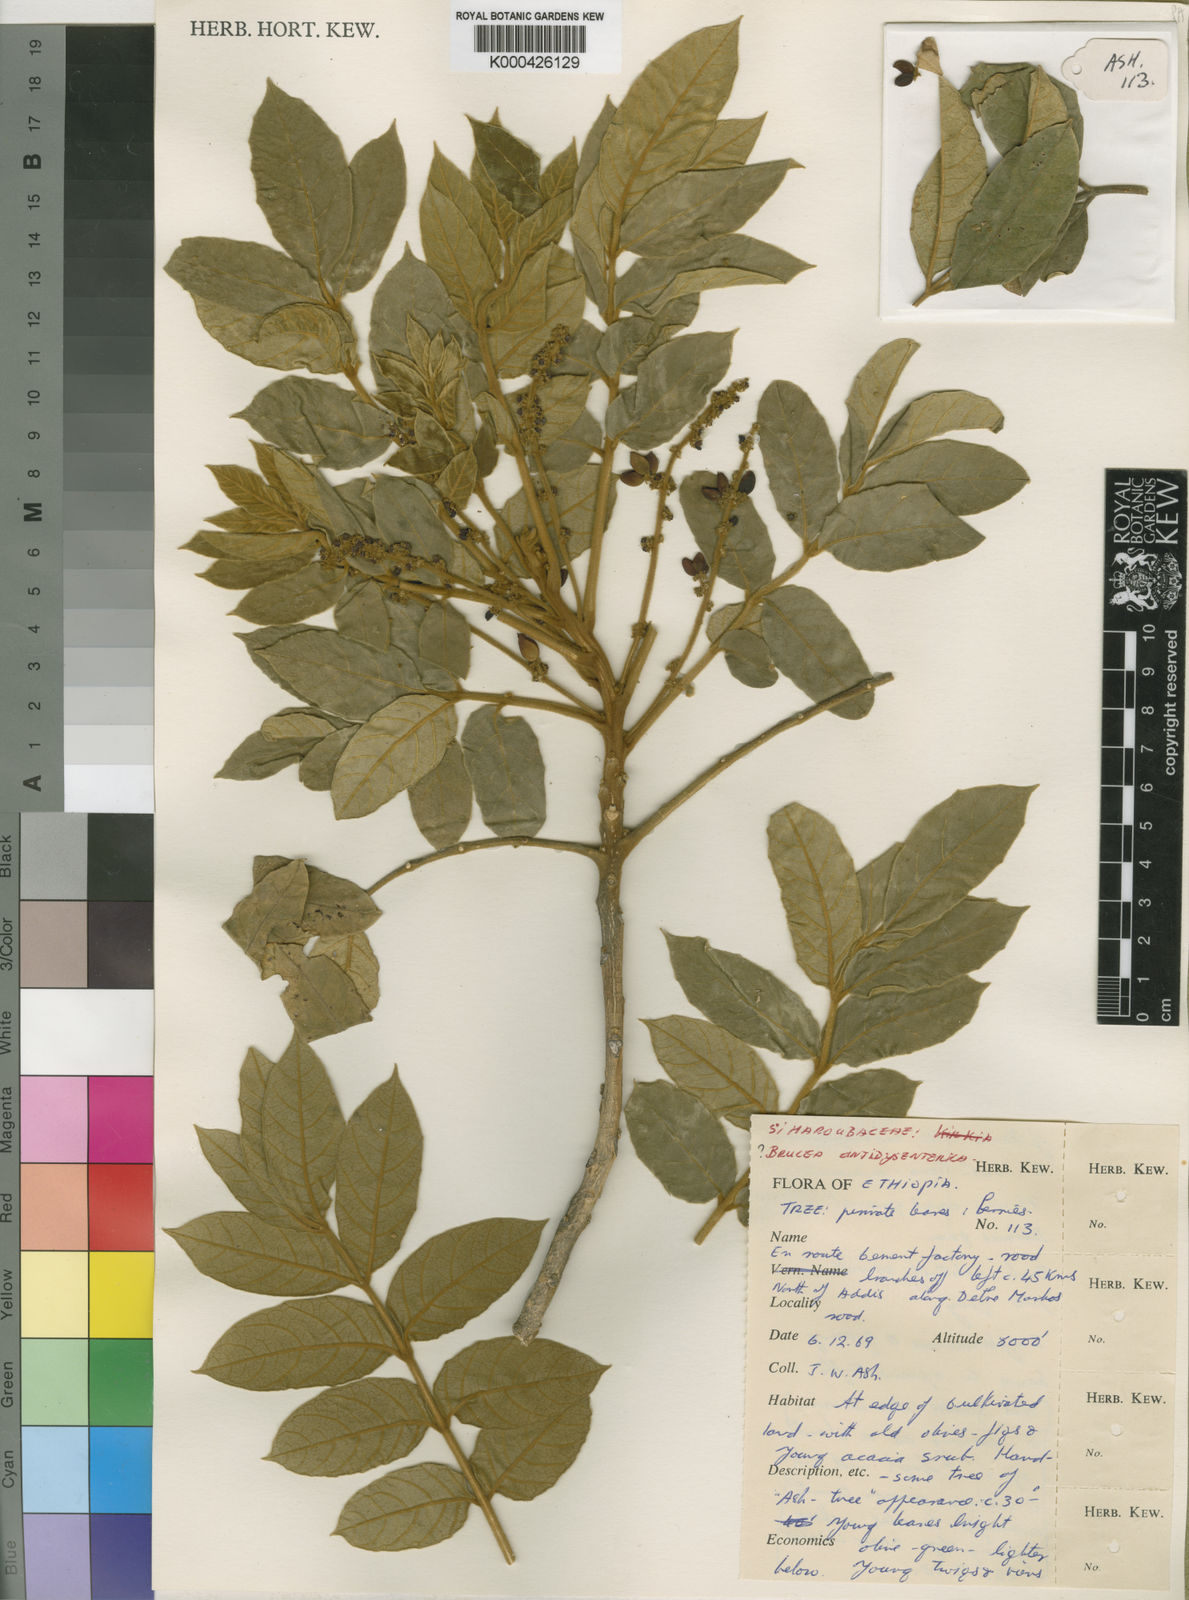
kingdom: Plantae
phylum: Tracheophyta
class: Magnoliopsida
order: Sapindales
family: Simaroubaceae
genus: Brucea
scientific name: Brucea antidysenterica
